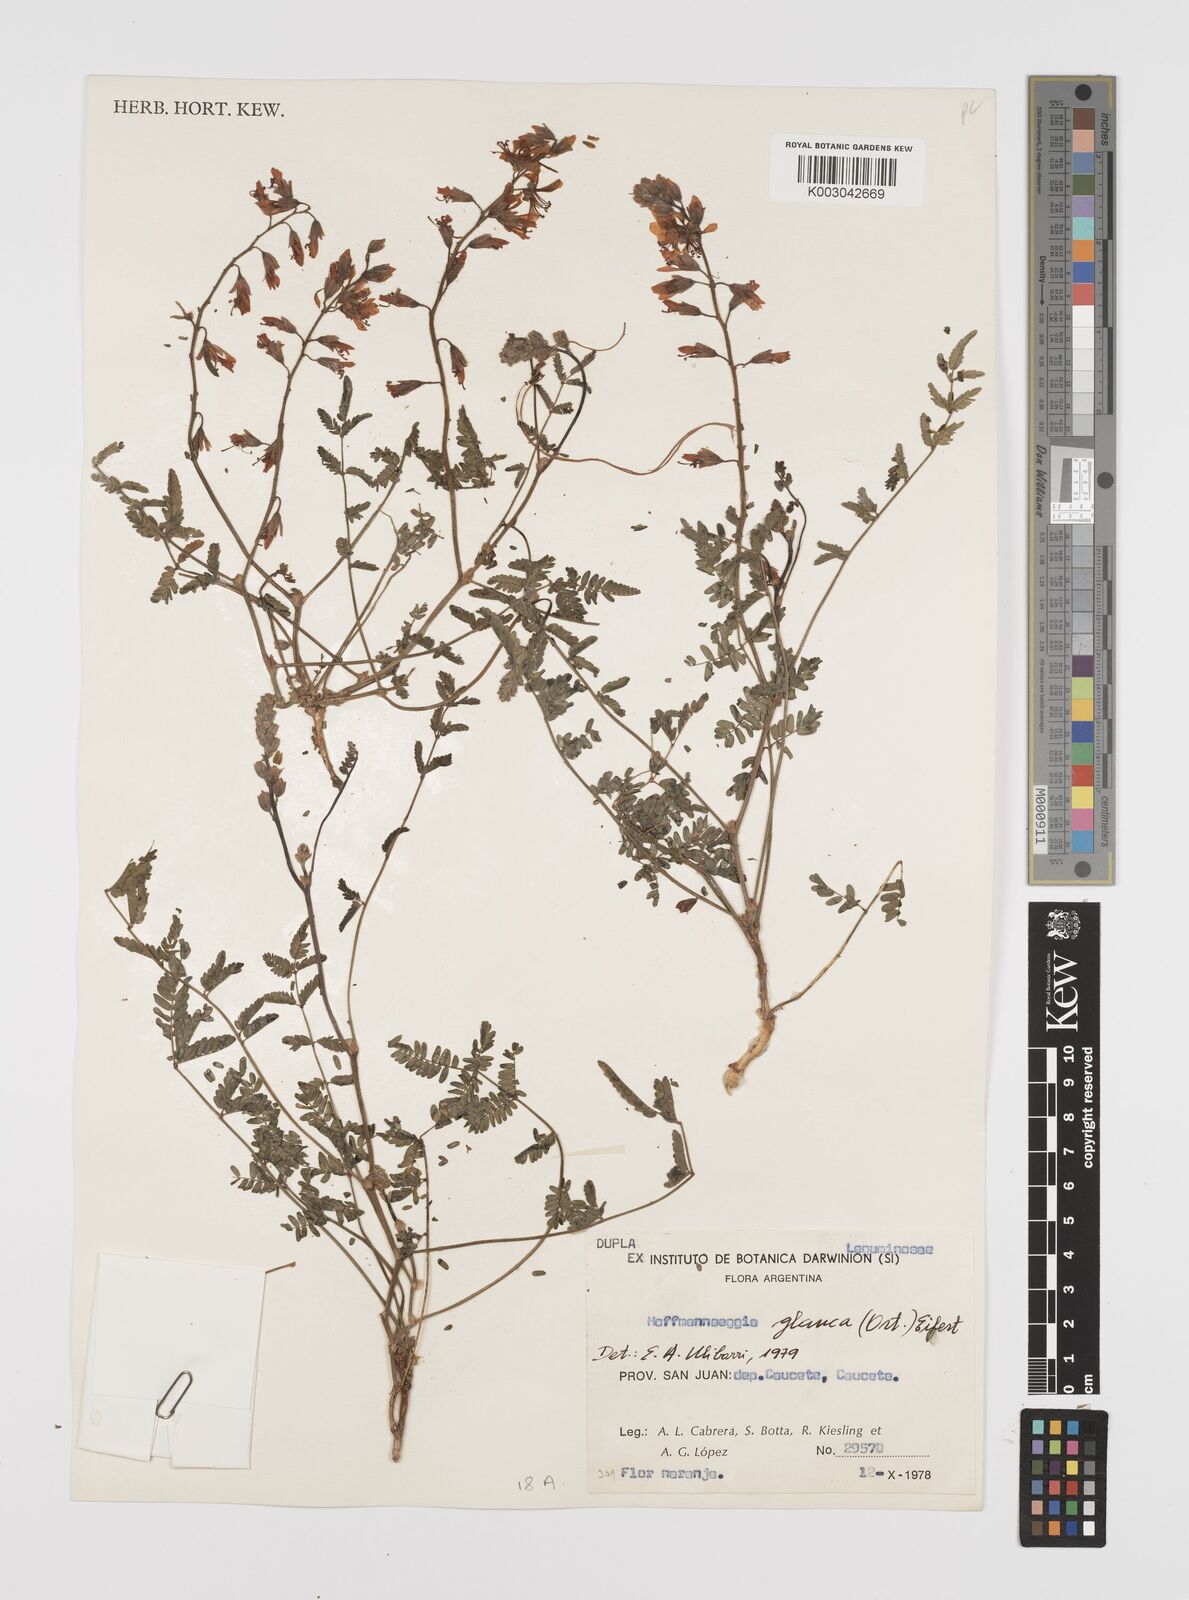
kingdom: Plantae
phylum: Tracheophyta
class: Magnoliopsida
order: Fabales
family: Fabaceae
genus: Hoffmannseggia
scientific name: Hoffmannseggia glauca
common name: Pignut
